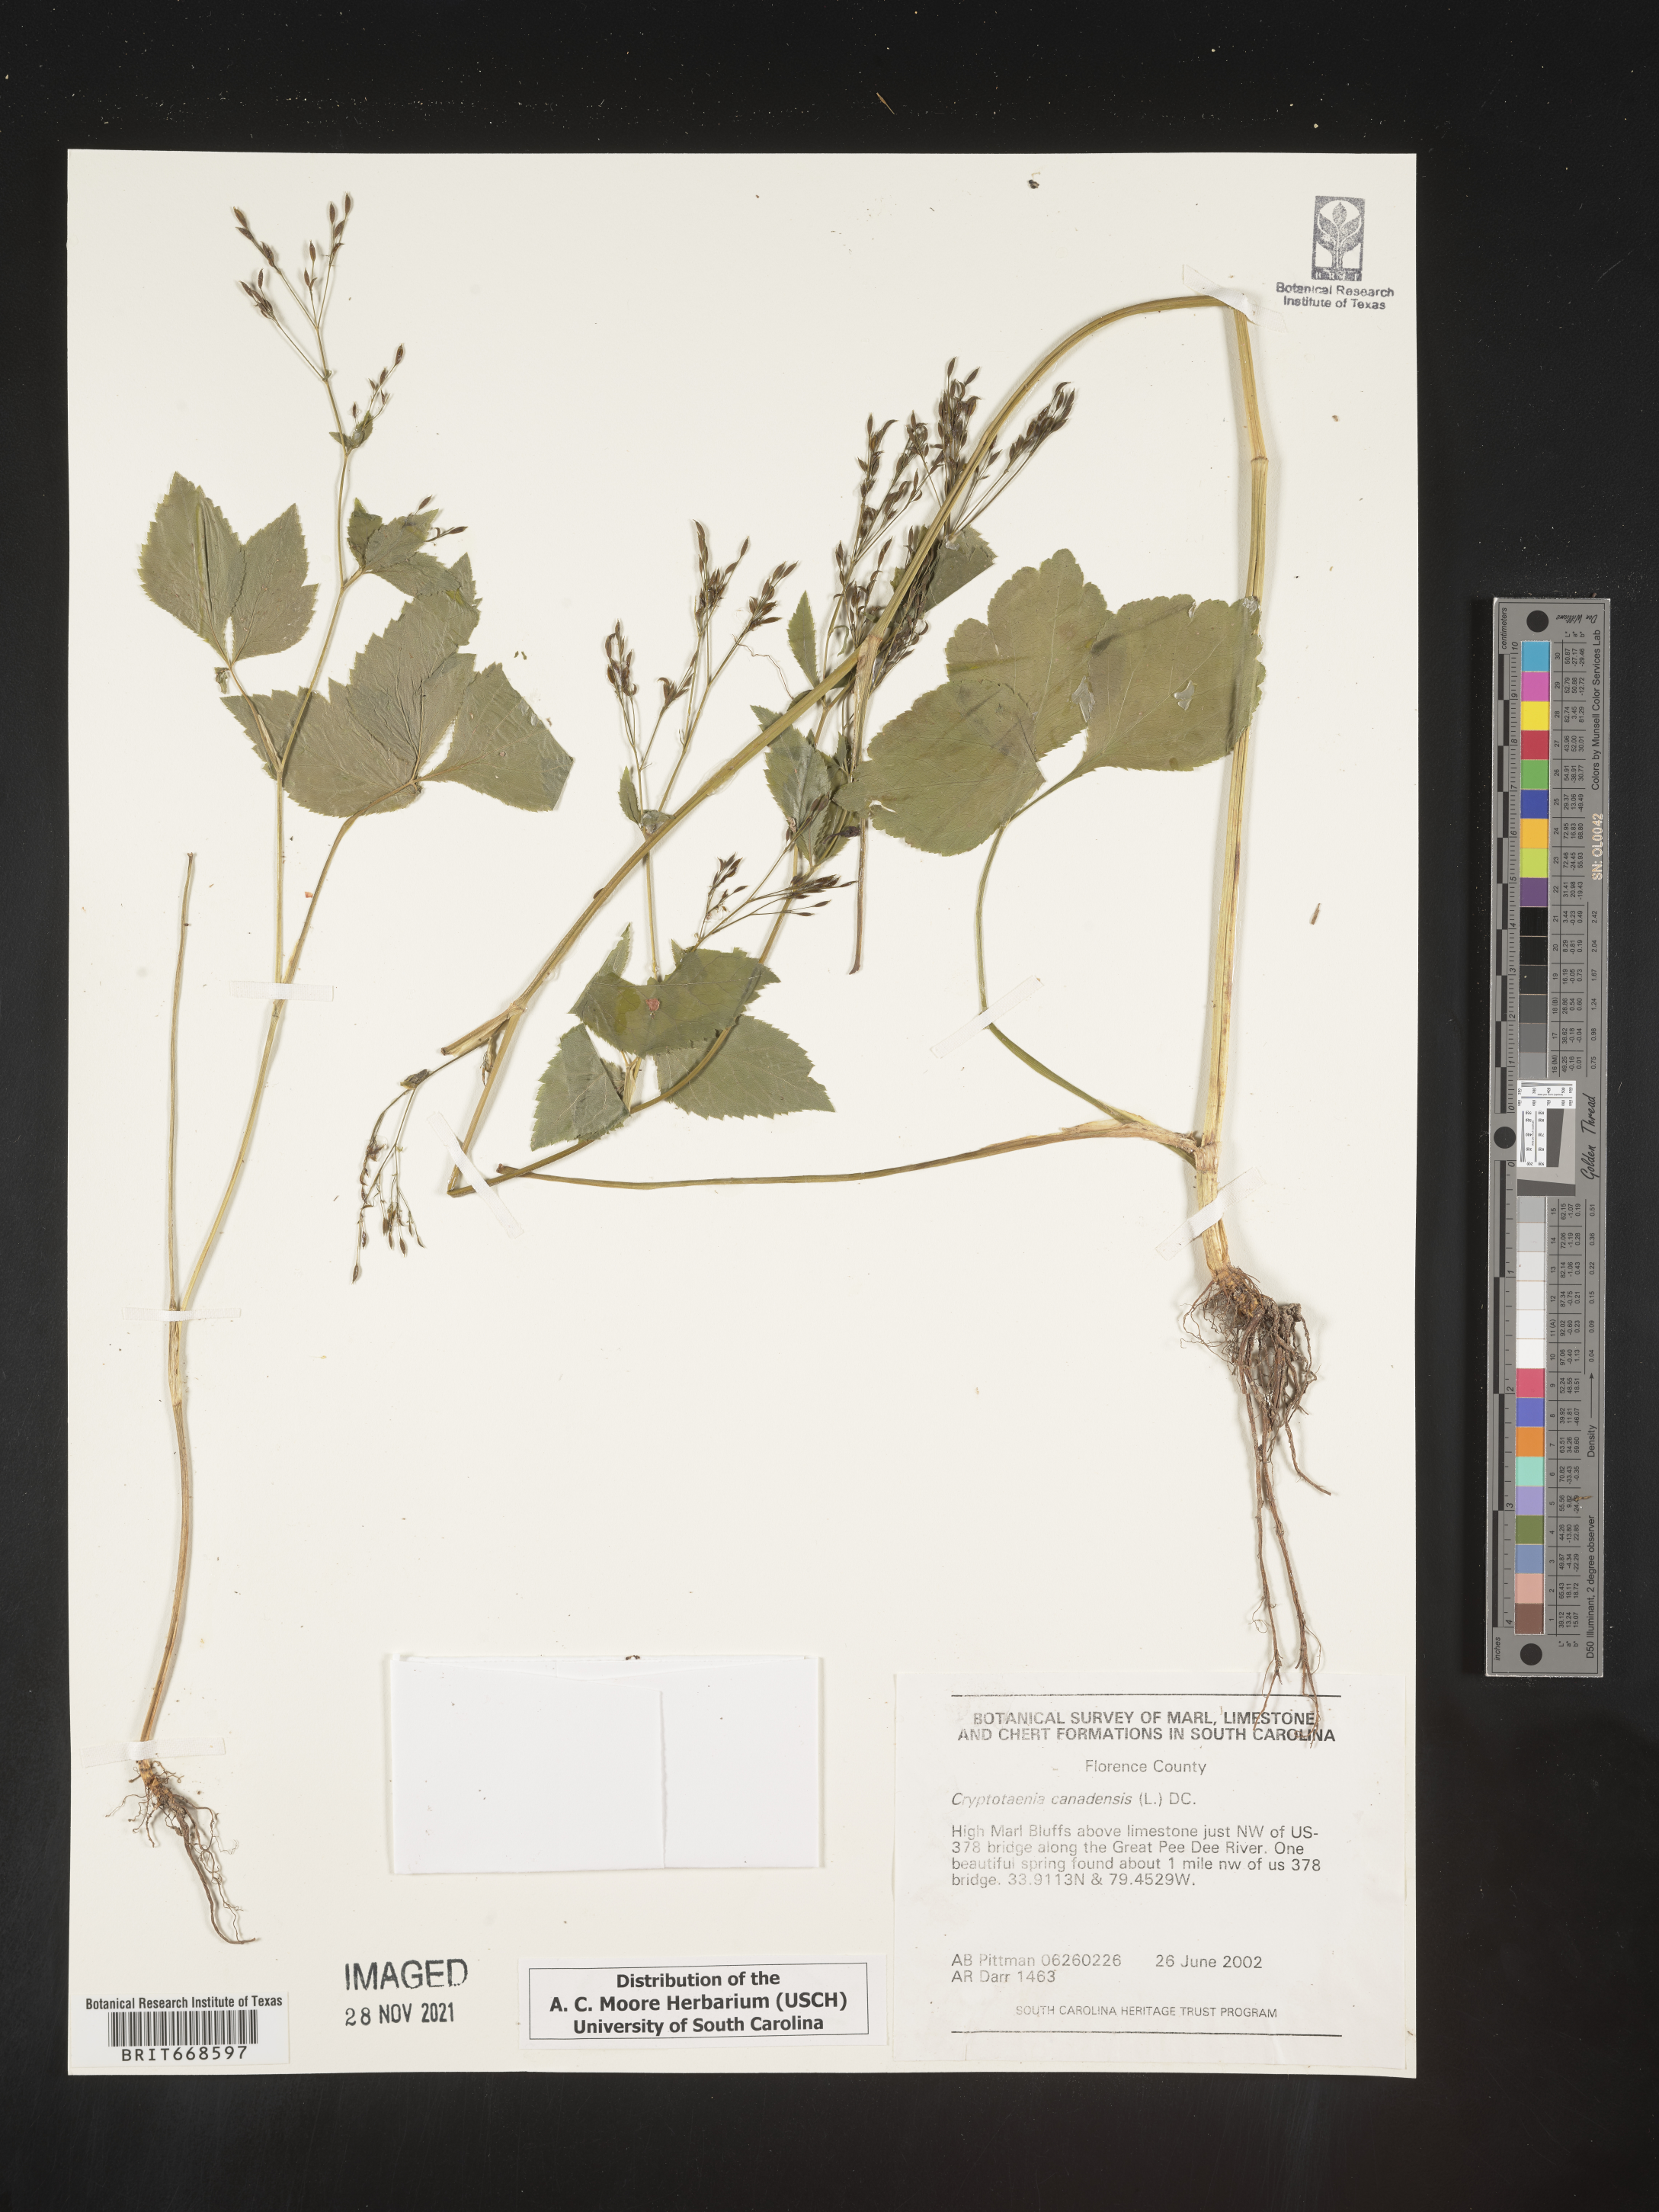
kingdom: Plantae
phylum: Tracheophyta
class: Magnoliopsida
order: Apiales
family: Apiaceae
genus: Cryptotaenia
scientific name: Cryptotaenia canadensis
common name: Honewort
